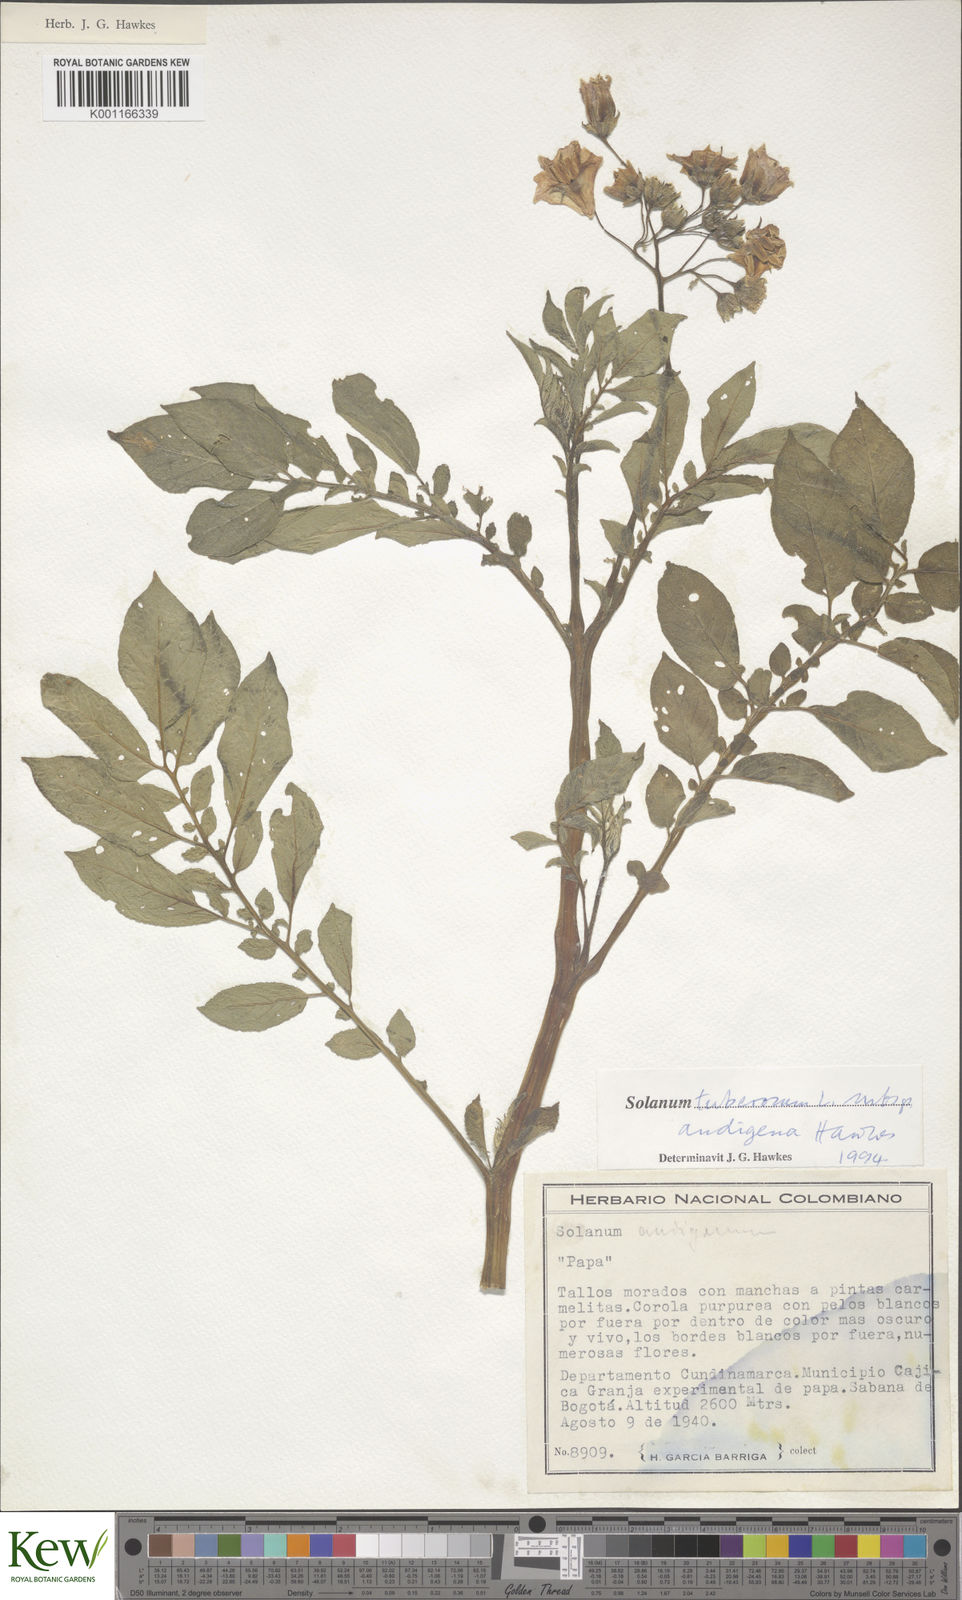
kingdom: Plantae
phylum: Tracheophyta
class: Magnoliopsida
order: Solanales
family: Solanaceae
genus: Solanum
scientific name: Solanum tuberosum
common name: Potato
